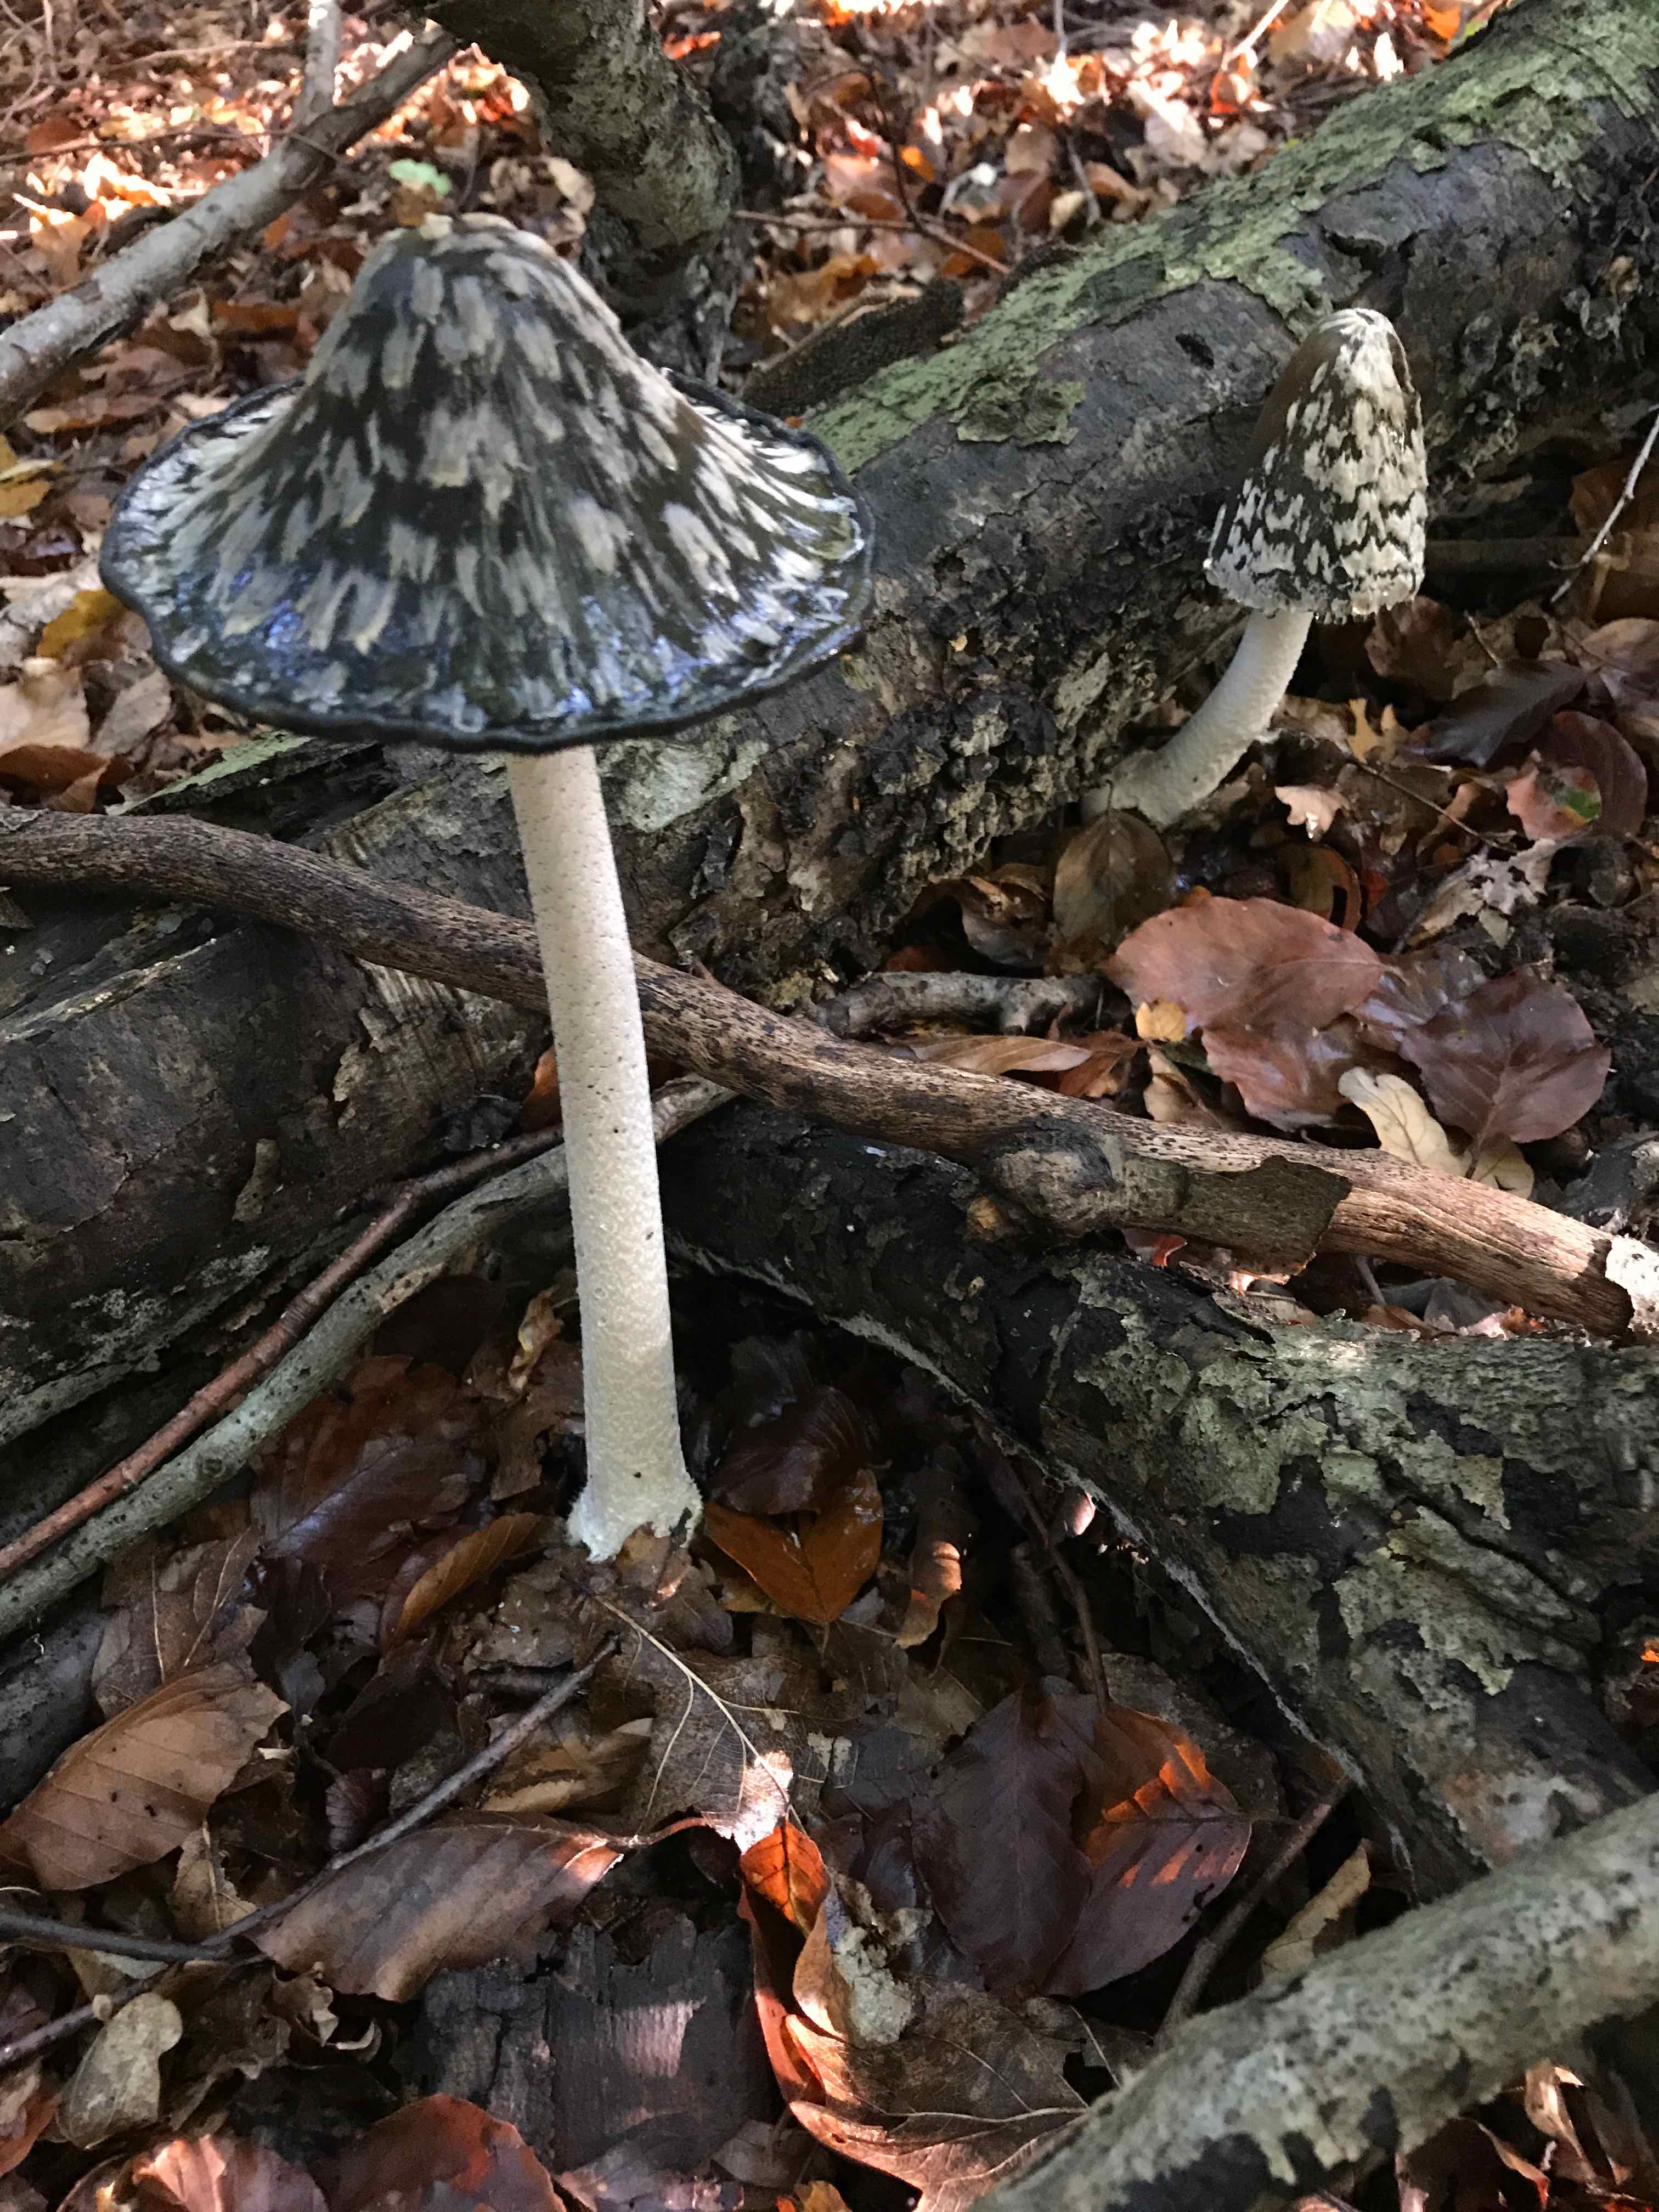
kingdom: Fungi
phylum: Basidiomycota
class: Agaricomycetes
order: Agaricales
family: Psathyrellaceae
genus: Coprinopsis
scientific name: Coprinopsis picacea
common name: skade-blækhat
